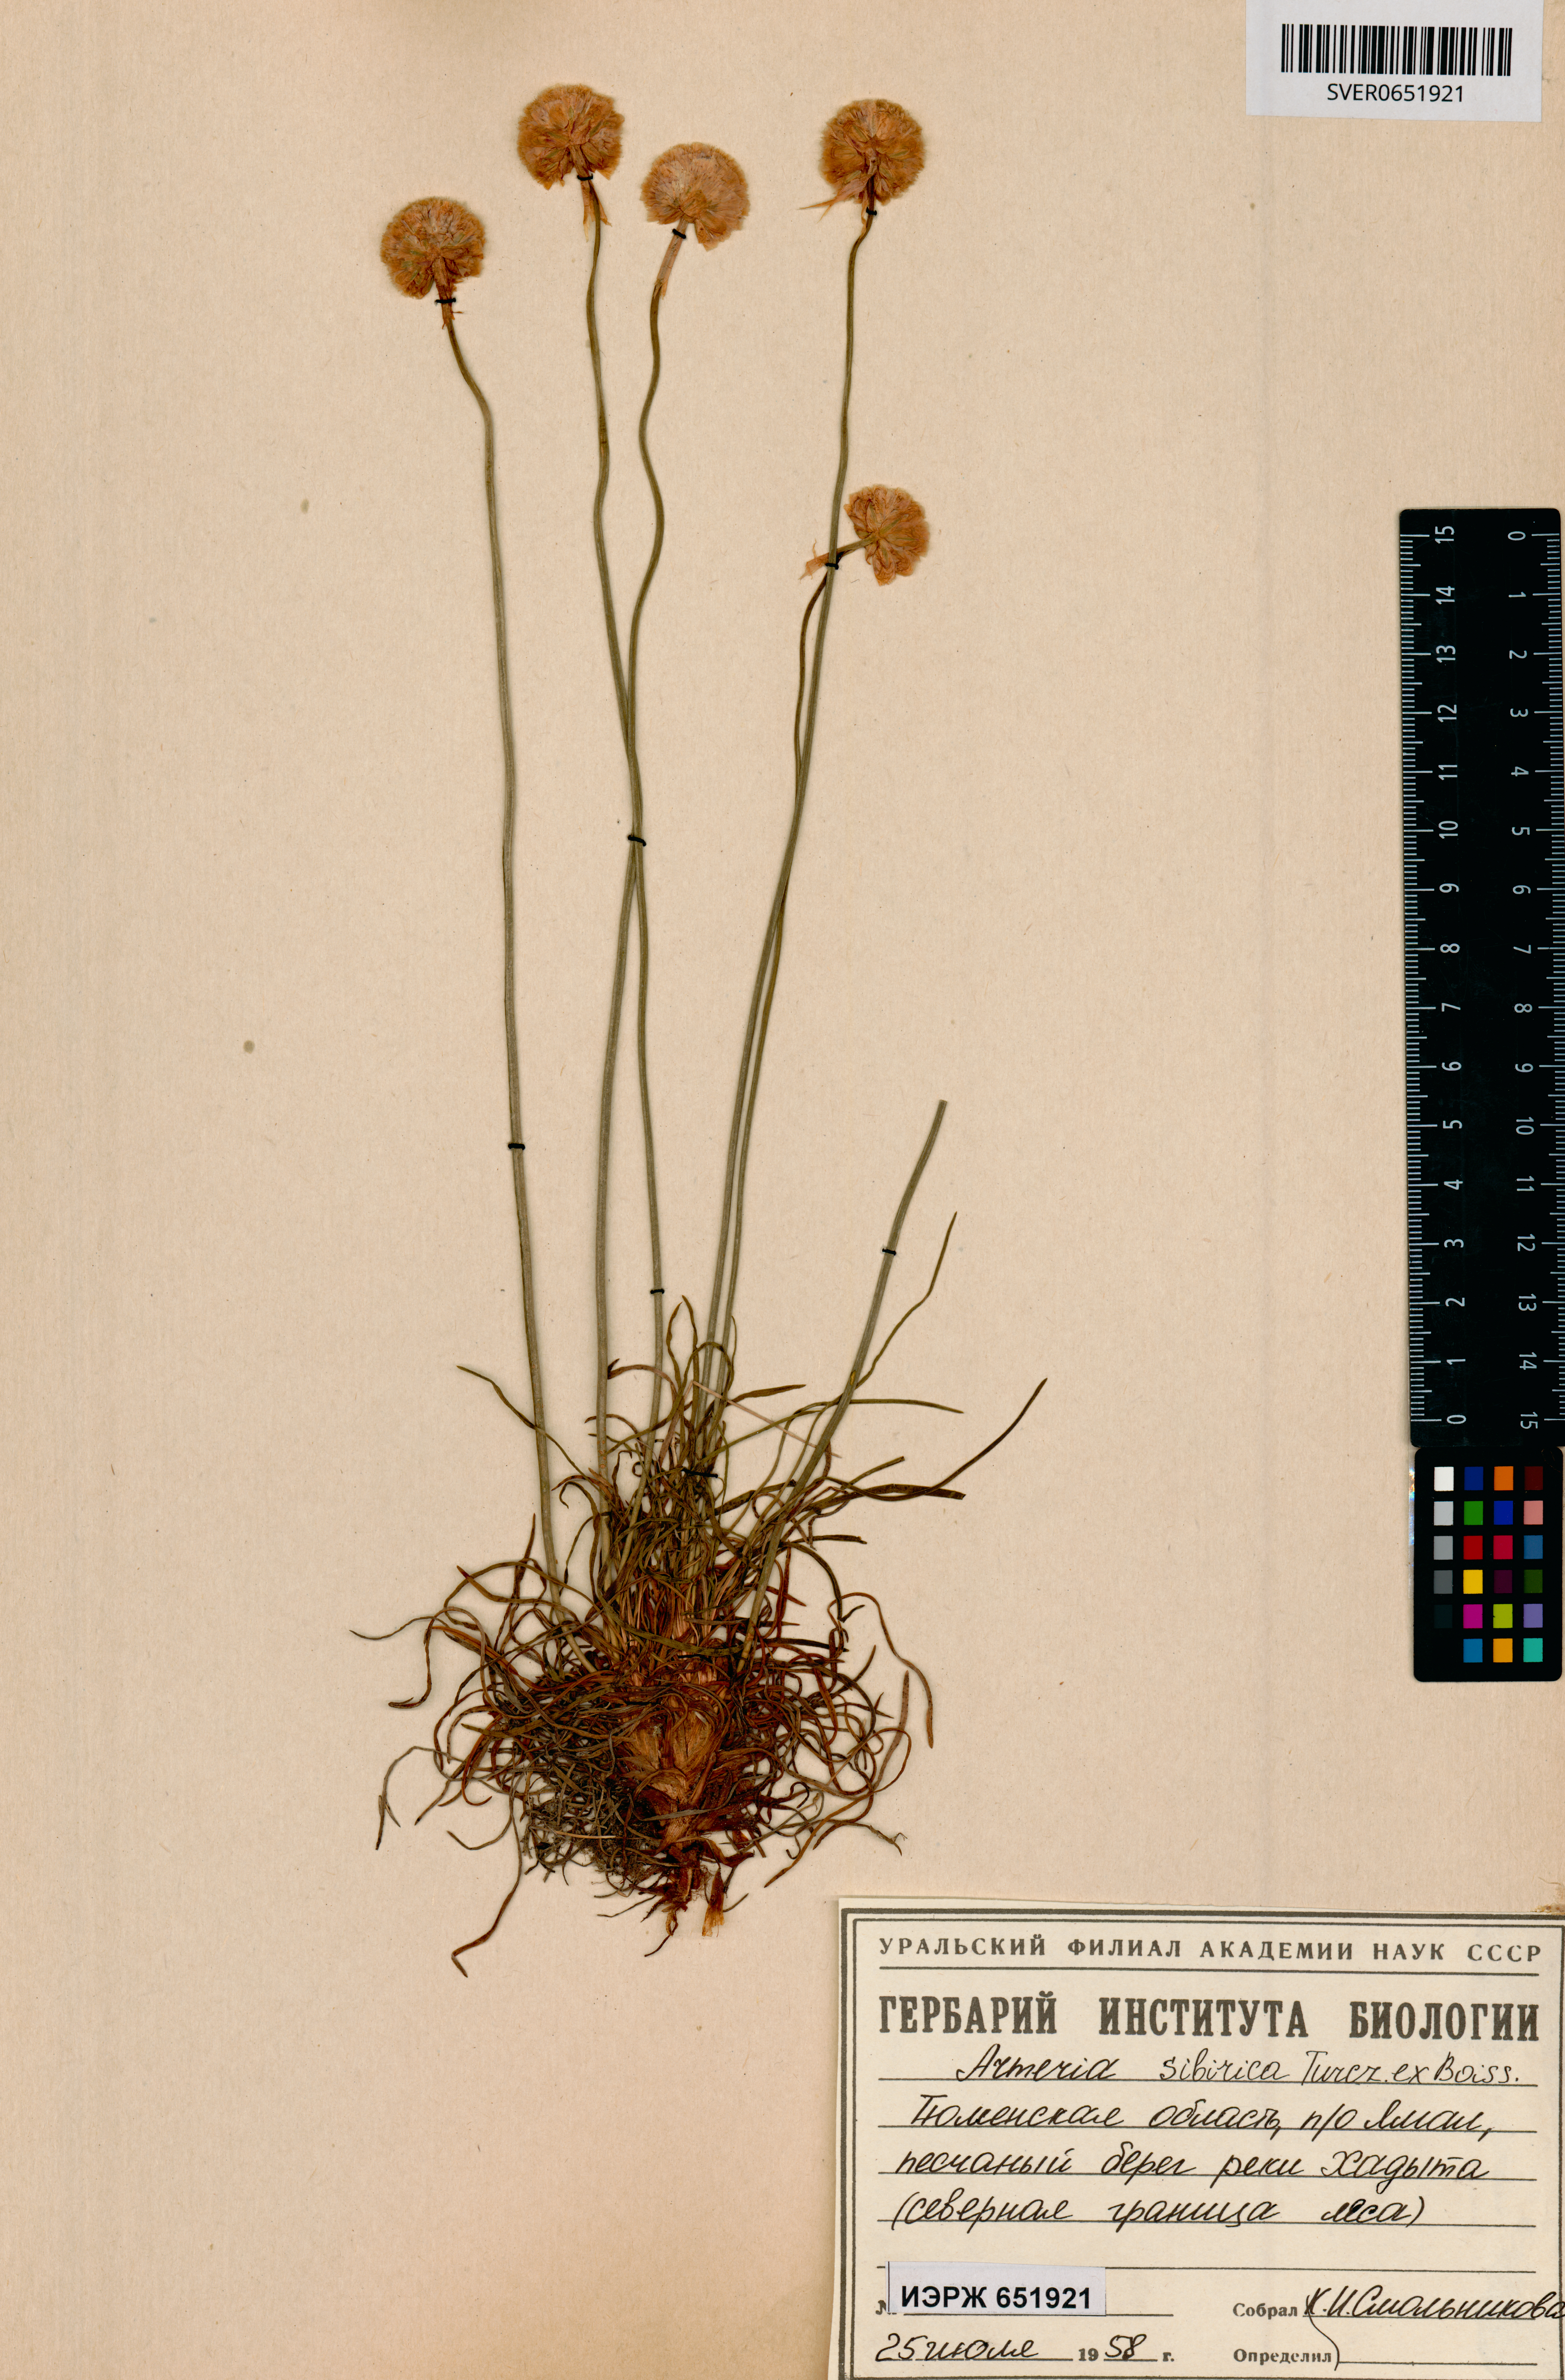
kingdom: Plantae
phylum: Tracheophyta
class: Magnoliopsida
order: Caryophyllales
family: Plumbaginaceae
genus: Armeria
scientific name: Armeria maritima
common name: Thrift
